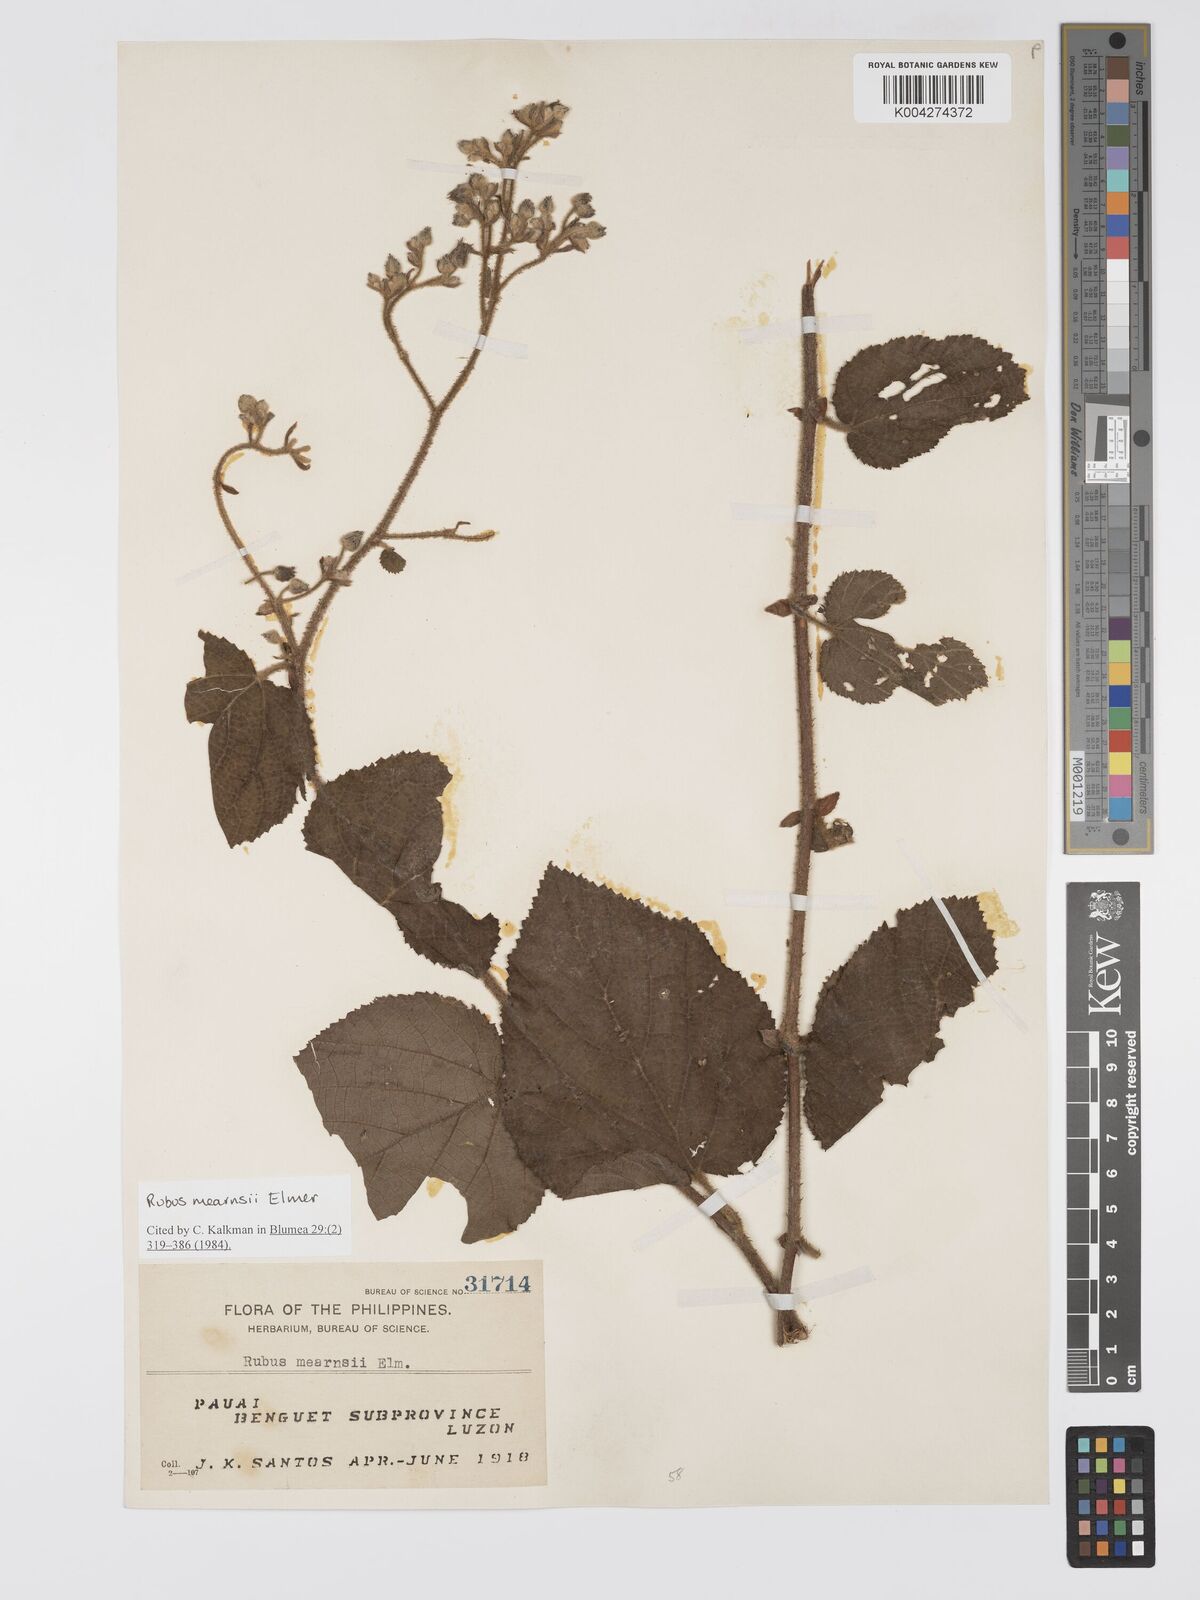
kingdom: Plantae
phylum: Tracheophyta
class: Magnoliopsida
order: Rosales
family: Rosaceae
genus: Rubus
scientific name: Rubus
